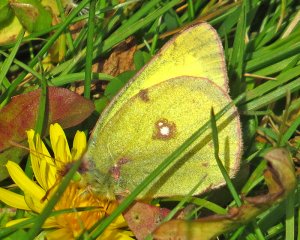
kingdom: Animalia
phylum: Arthropoda
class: Insecta
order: Lepidoptera
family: Pieridae
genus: Colias
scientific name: Colias philodice
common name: Clouded Sulphur
